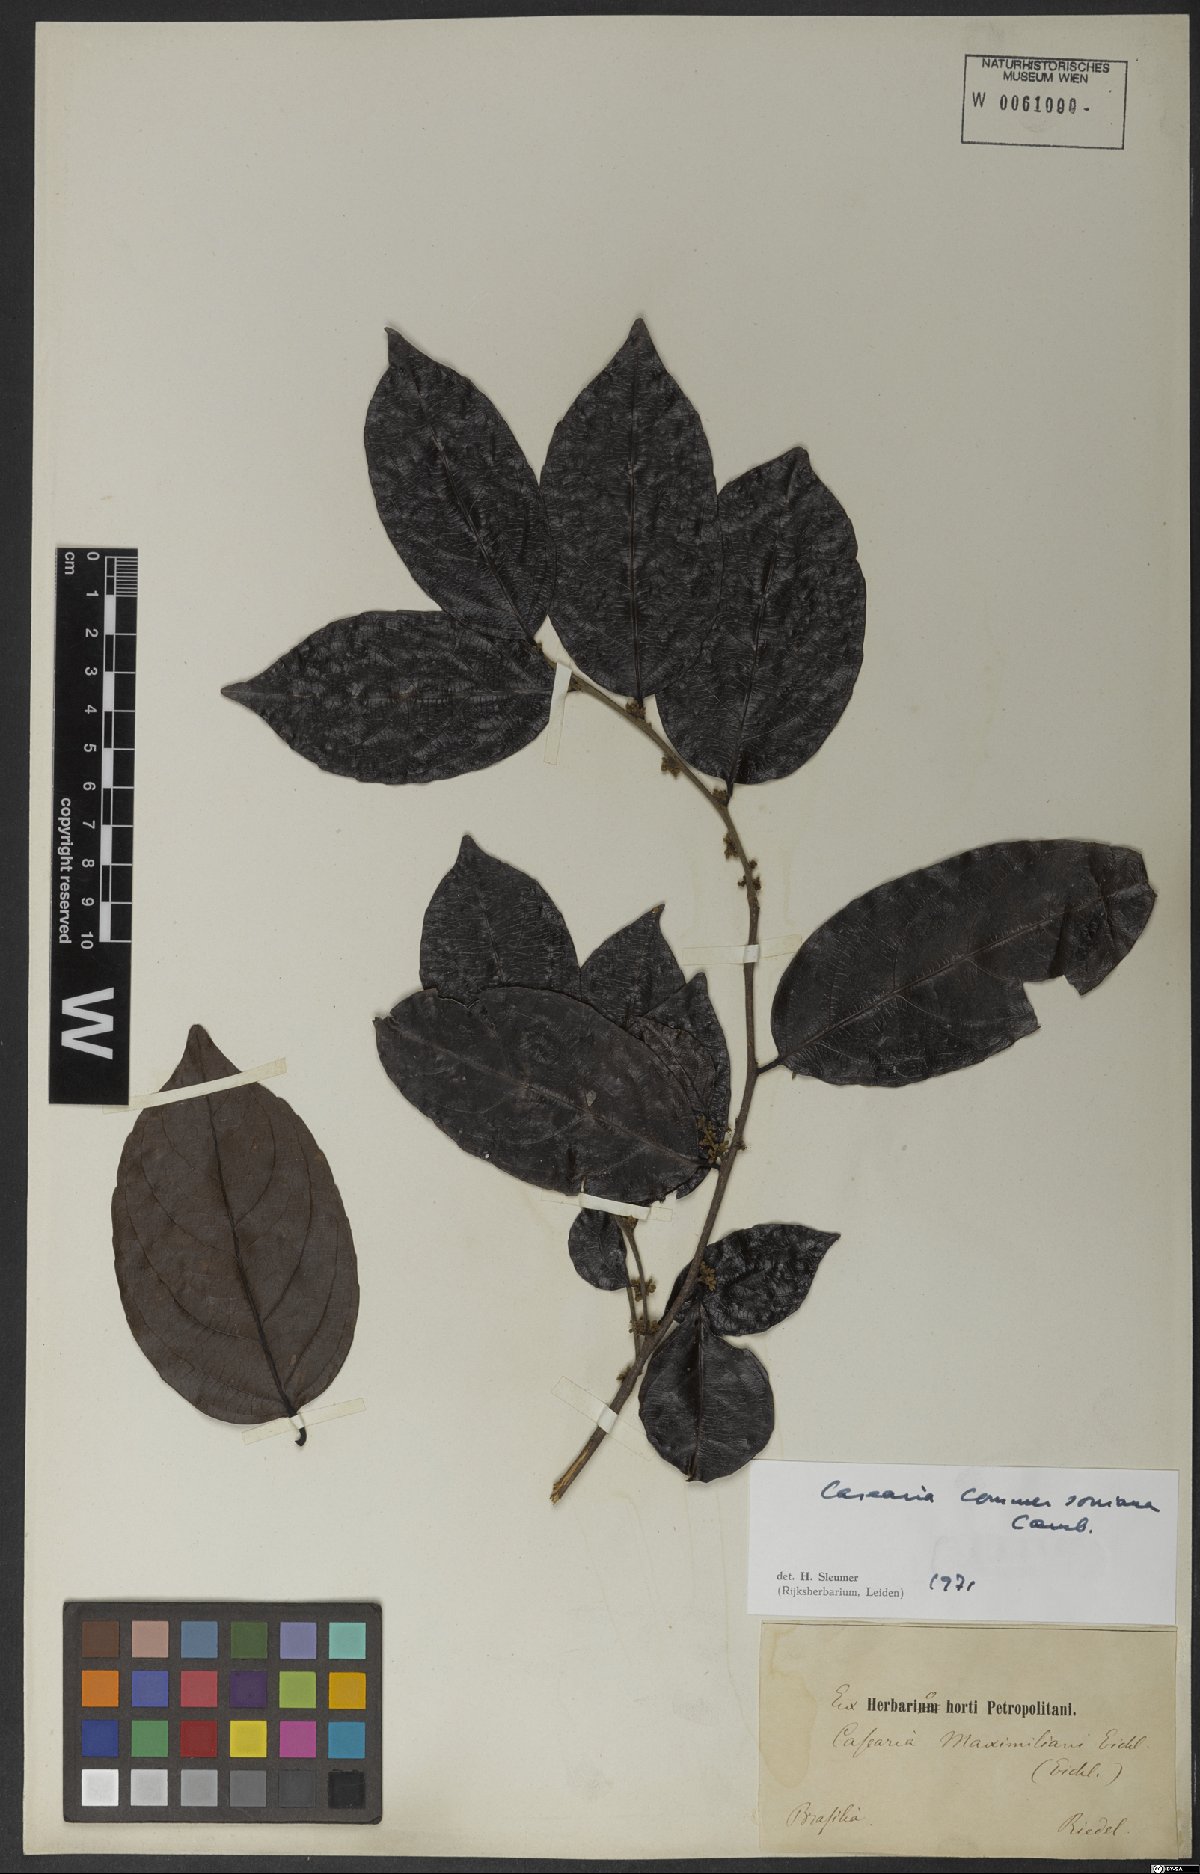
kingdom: Plantae
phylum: Tracheophyta
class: Magnoliopsida
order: Malpighiales
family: Salicaceae
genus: Piparea
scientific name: Piparea dentata
